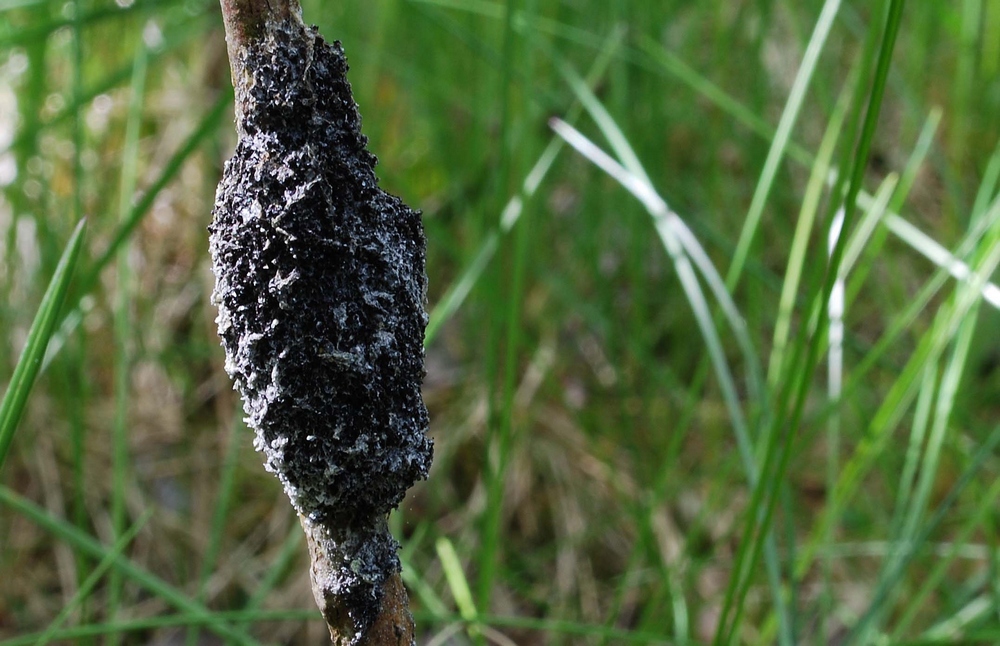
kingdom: Protozoa
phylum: Mycetozoa
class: Myxomycetes
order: Physarales
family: Physaraceae
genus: Didymium
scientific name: Didymium
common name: urteskum
